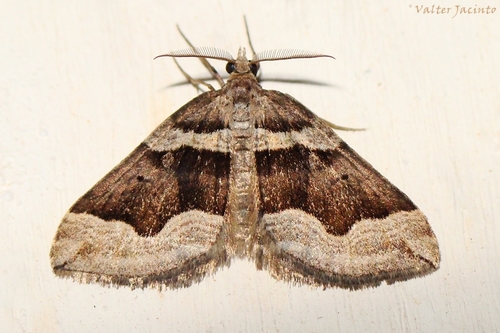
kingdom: Animalia
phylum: Arthropoda
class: Insecta
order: Lepidoptera
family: Geometridae
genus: Scotopteryx
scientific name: Scotopteryx peribolata
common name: Spanish carpet
